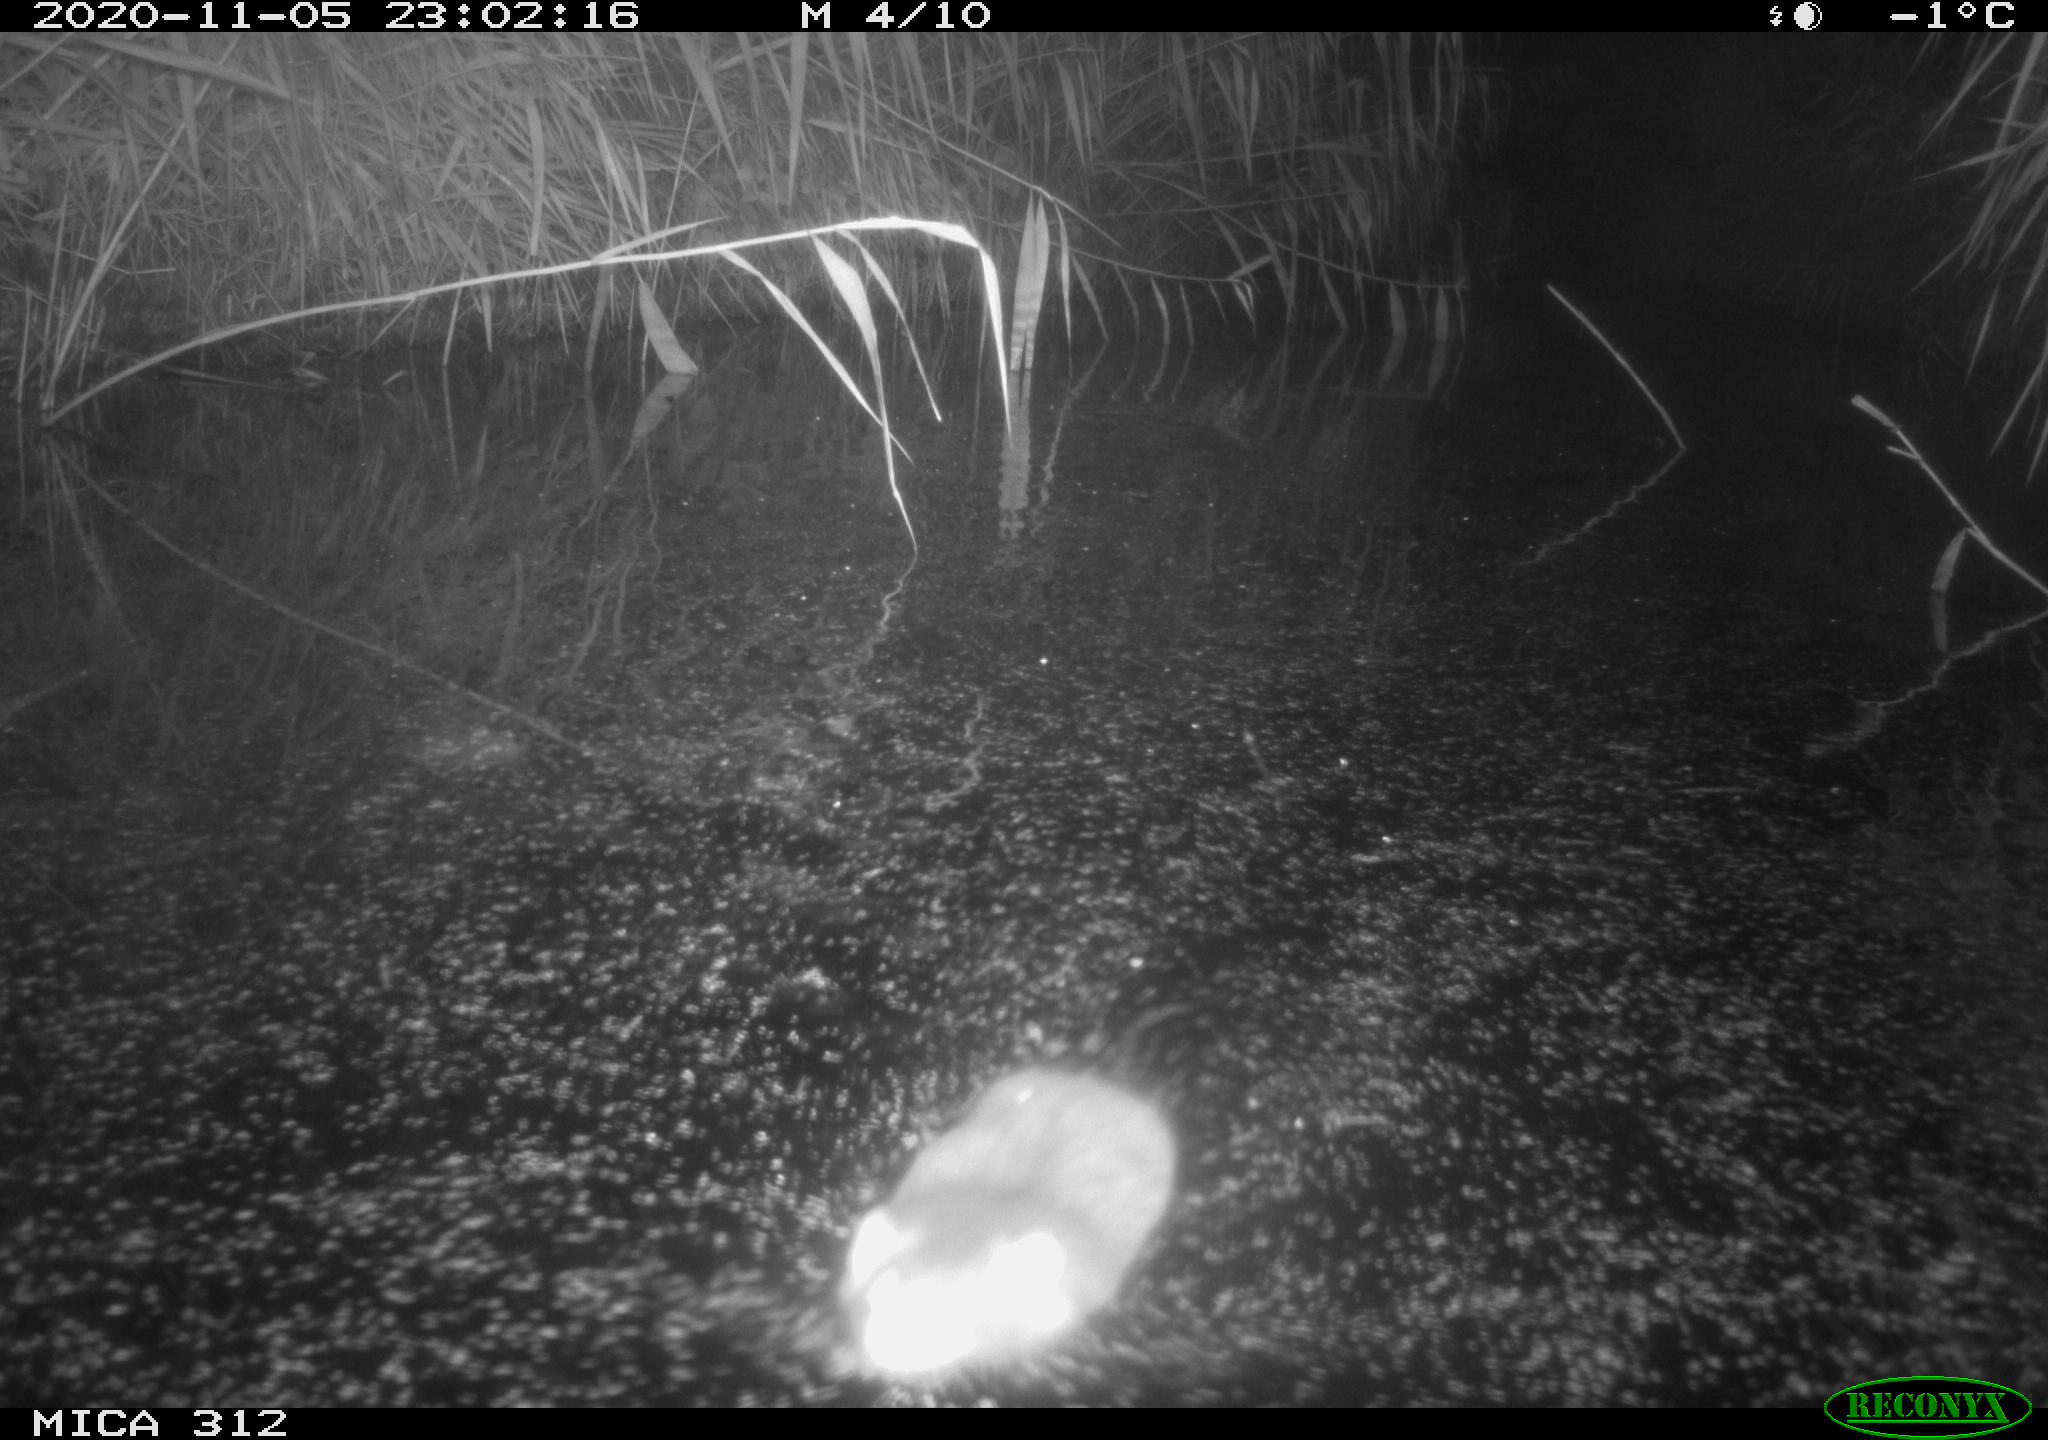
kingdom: Animalia
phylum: Chordata
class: Mammalia
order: Rodentia
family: Muridae
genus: Rattus
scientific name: Rattus norvegicus
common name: Brown rat
